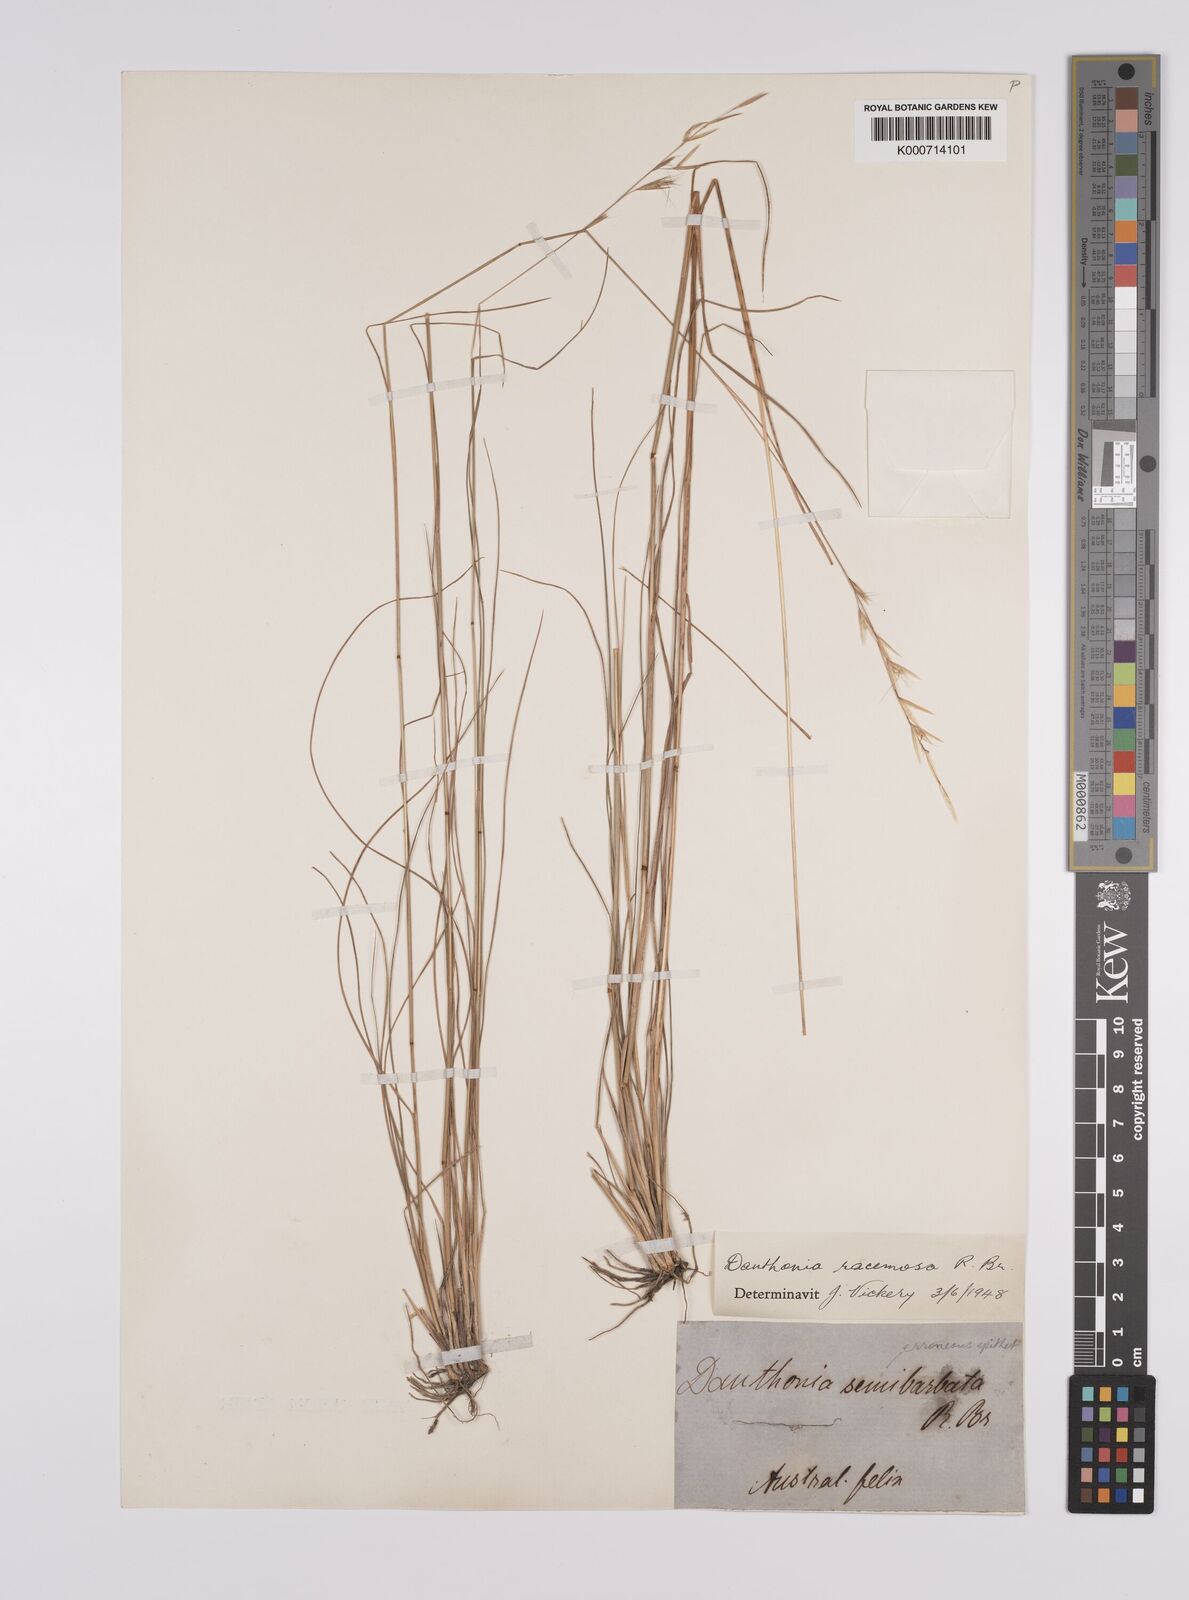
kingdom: Plantae
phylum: Tracheophyta
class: Liliopsida
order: Poales
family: Poaceae
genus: Rytidosperma
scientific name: Rytidosperma racemosum
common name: Wallaby-grass
